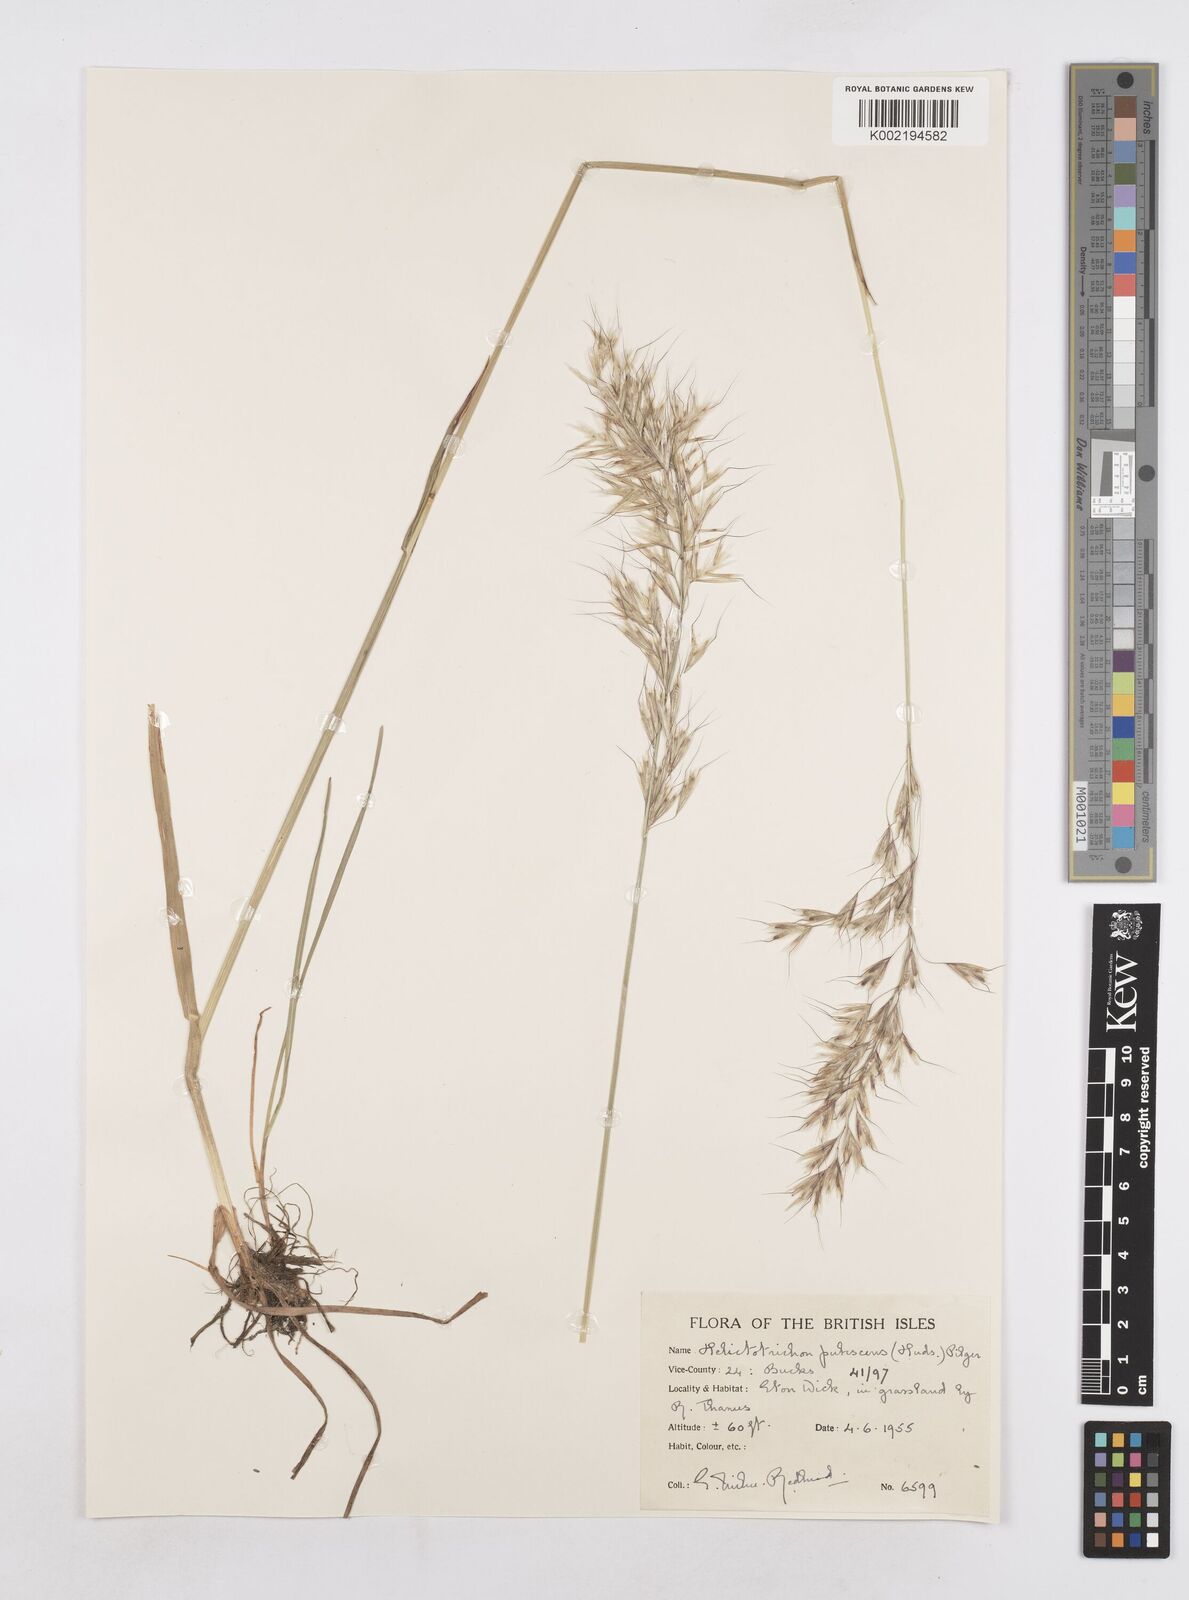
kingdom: Plantae
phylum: Tracheophyta
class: Liliopsida
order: Poales
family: Poaceae
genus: Avenula
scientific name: Avenula pubescens
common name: Downy alpine oatgrass
